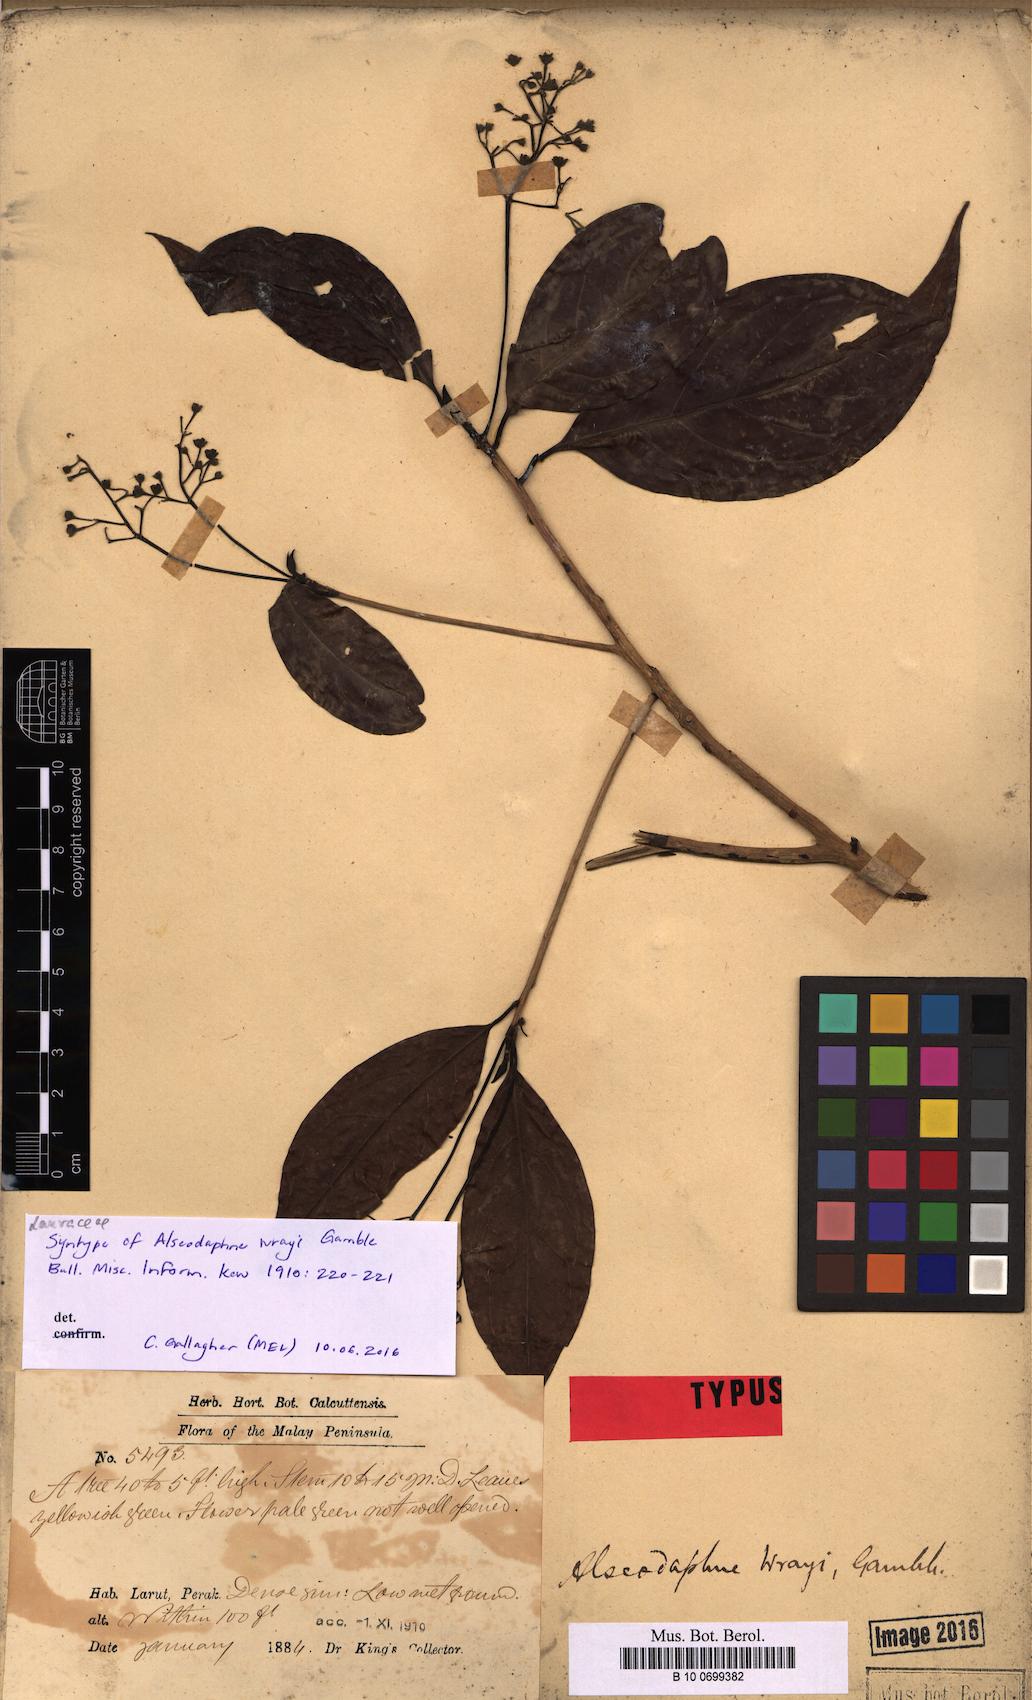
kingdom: Plantae
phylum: Tracheophyta
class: Magnoliopsida
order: Laurales
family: Lauraceae
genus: Alseodaphne
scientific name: Alseodaphne wrayi
